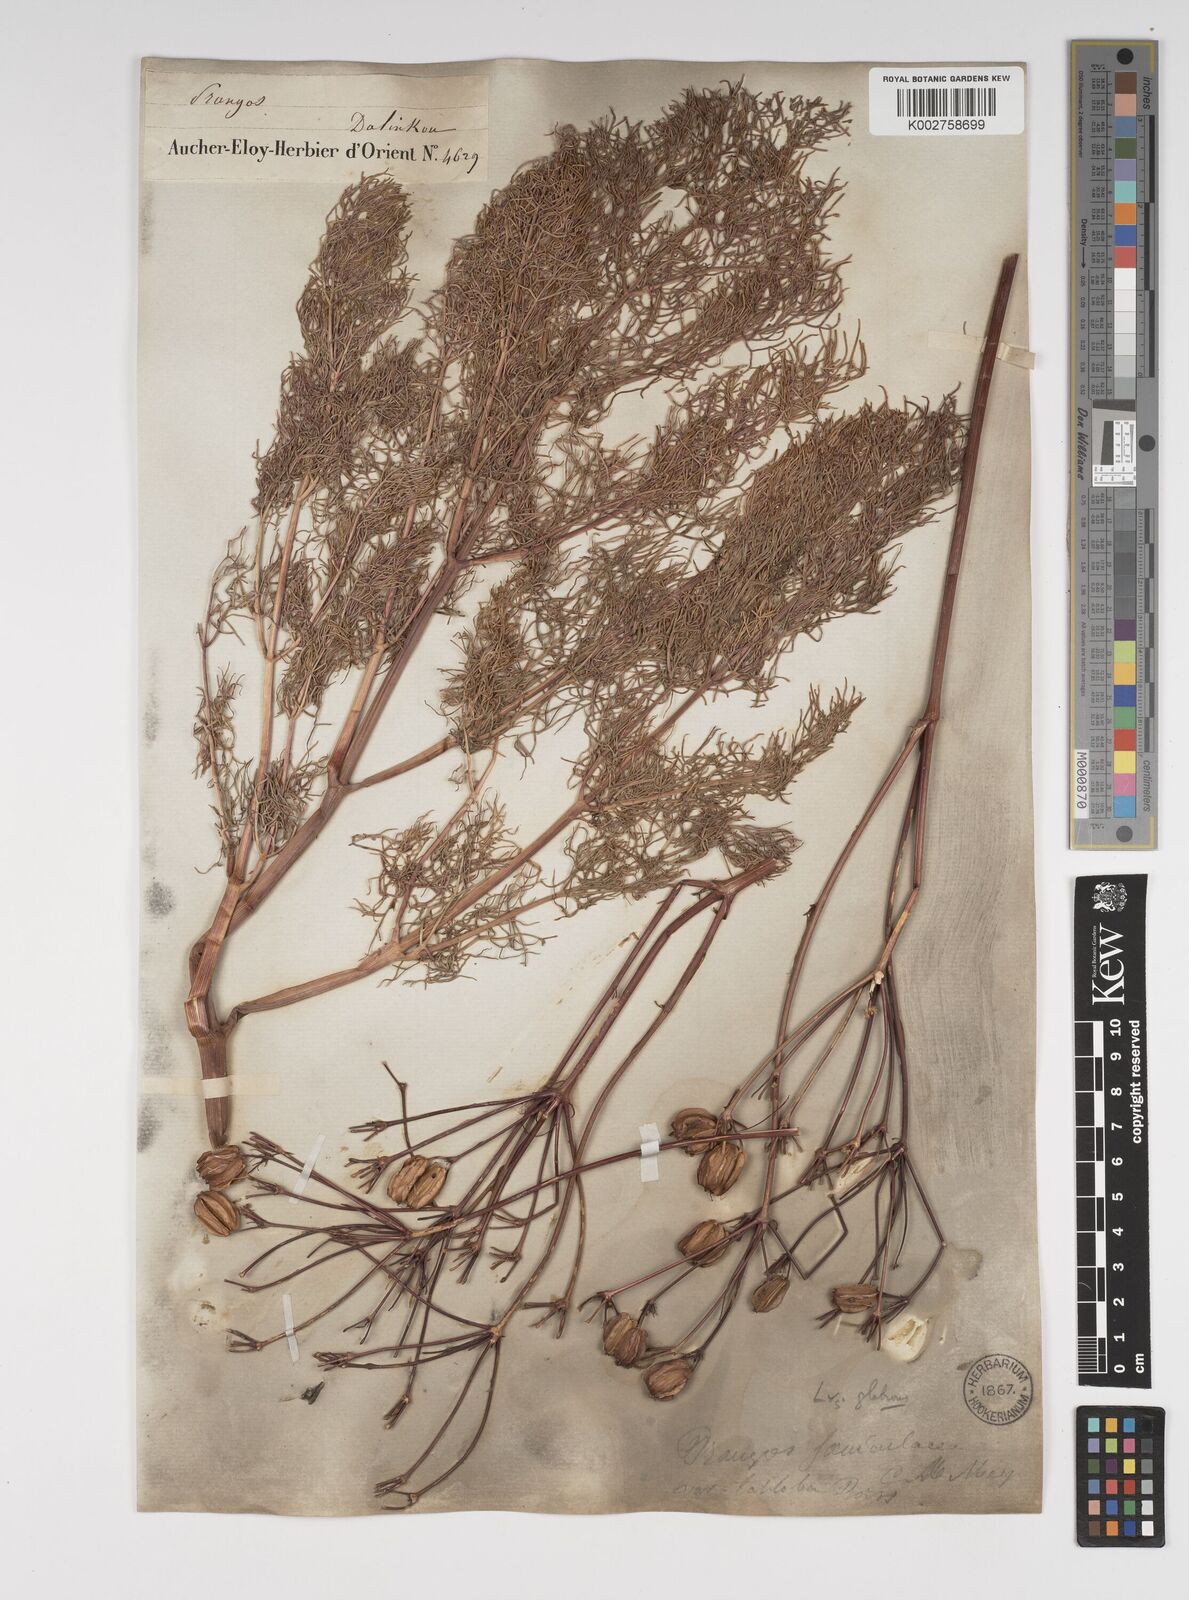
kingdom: Plantae
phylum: Tracheophyta
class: Magnoliopsida
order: Apiales
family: Apiaceae
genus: Prangos
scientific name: Prangos ferulacea
